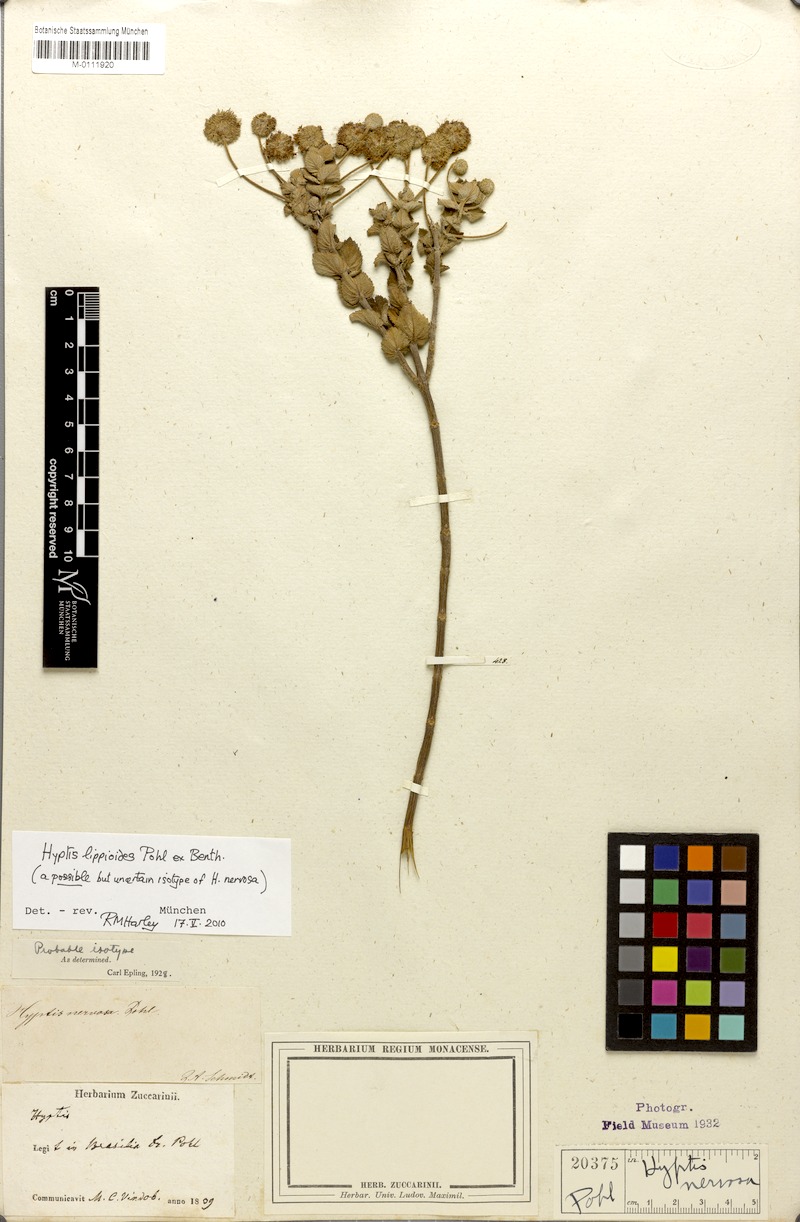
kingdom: Plantae
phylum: Tracheophyta
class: Magnoliopsida
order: Lamiales
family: Lamiaceae
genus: Cyanocephalus
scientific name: Cyanocephalus lippioides
